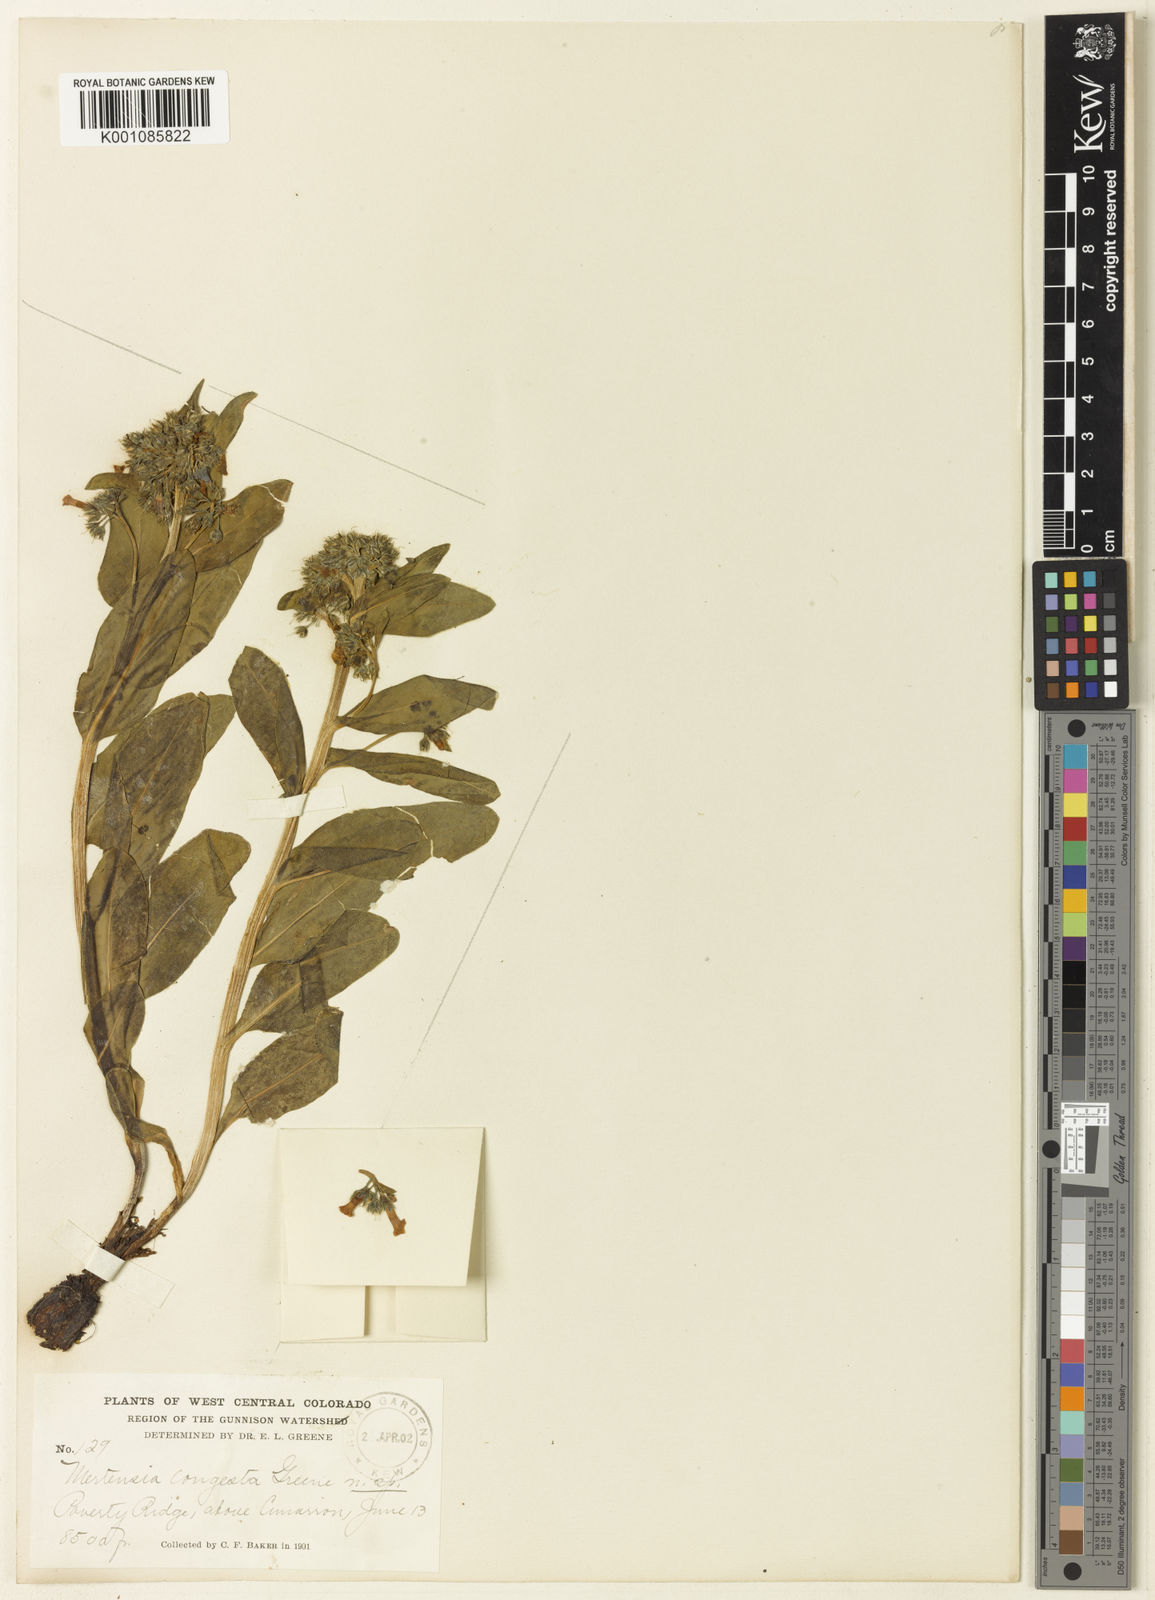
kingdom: Plantae
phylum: Tracheophyta
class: Magnoliopsida
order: Boraginales
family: Boraginaceae
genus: Mertensia
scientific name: Mertensia brevistyla
